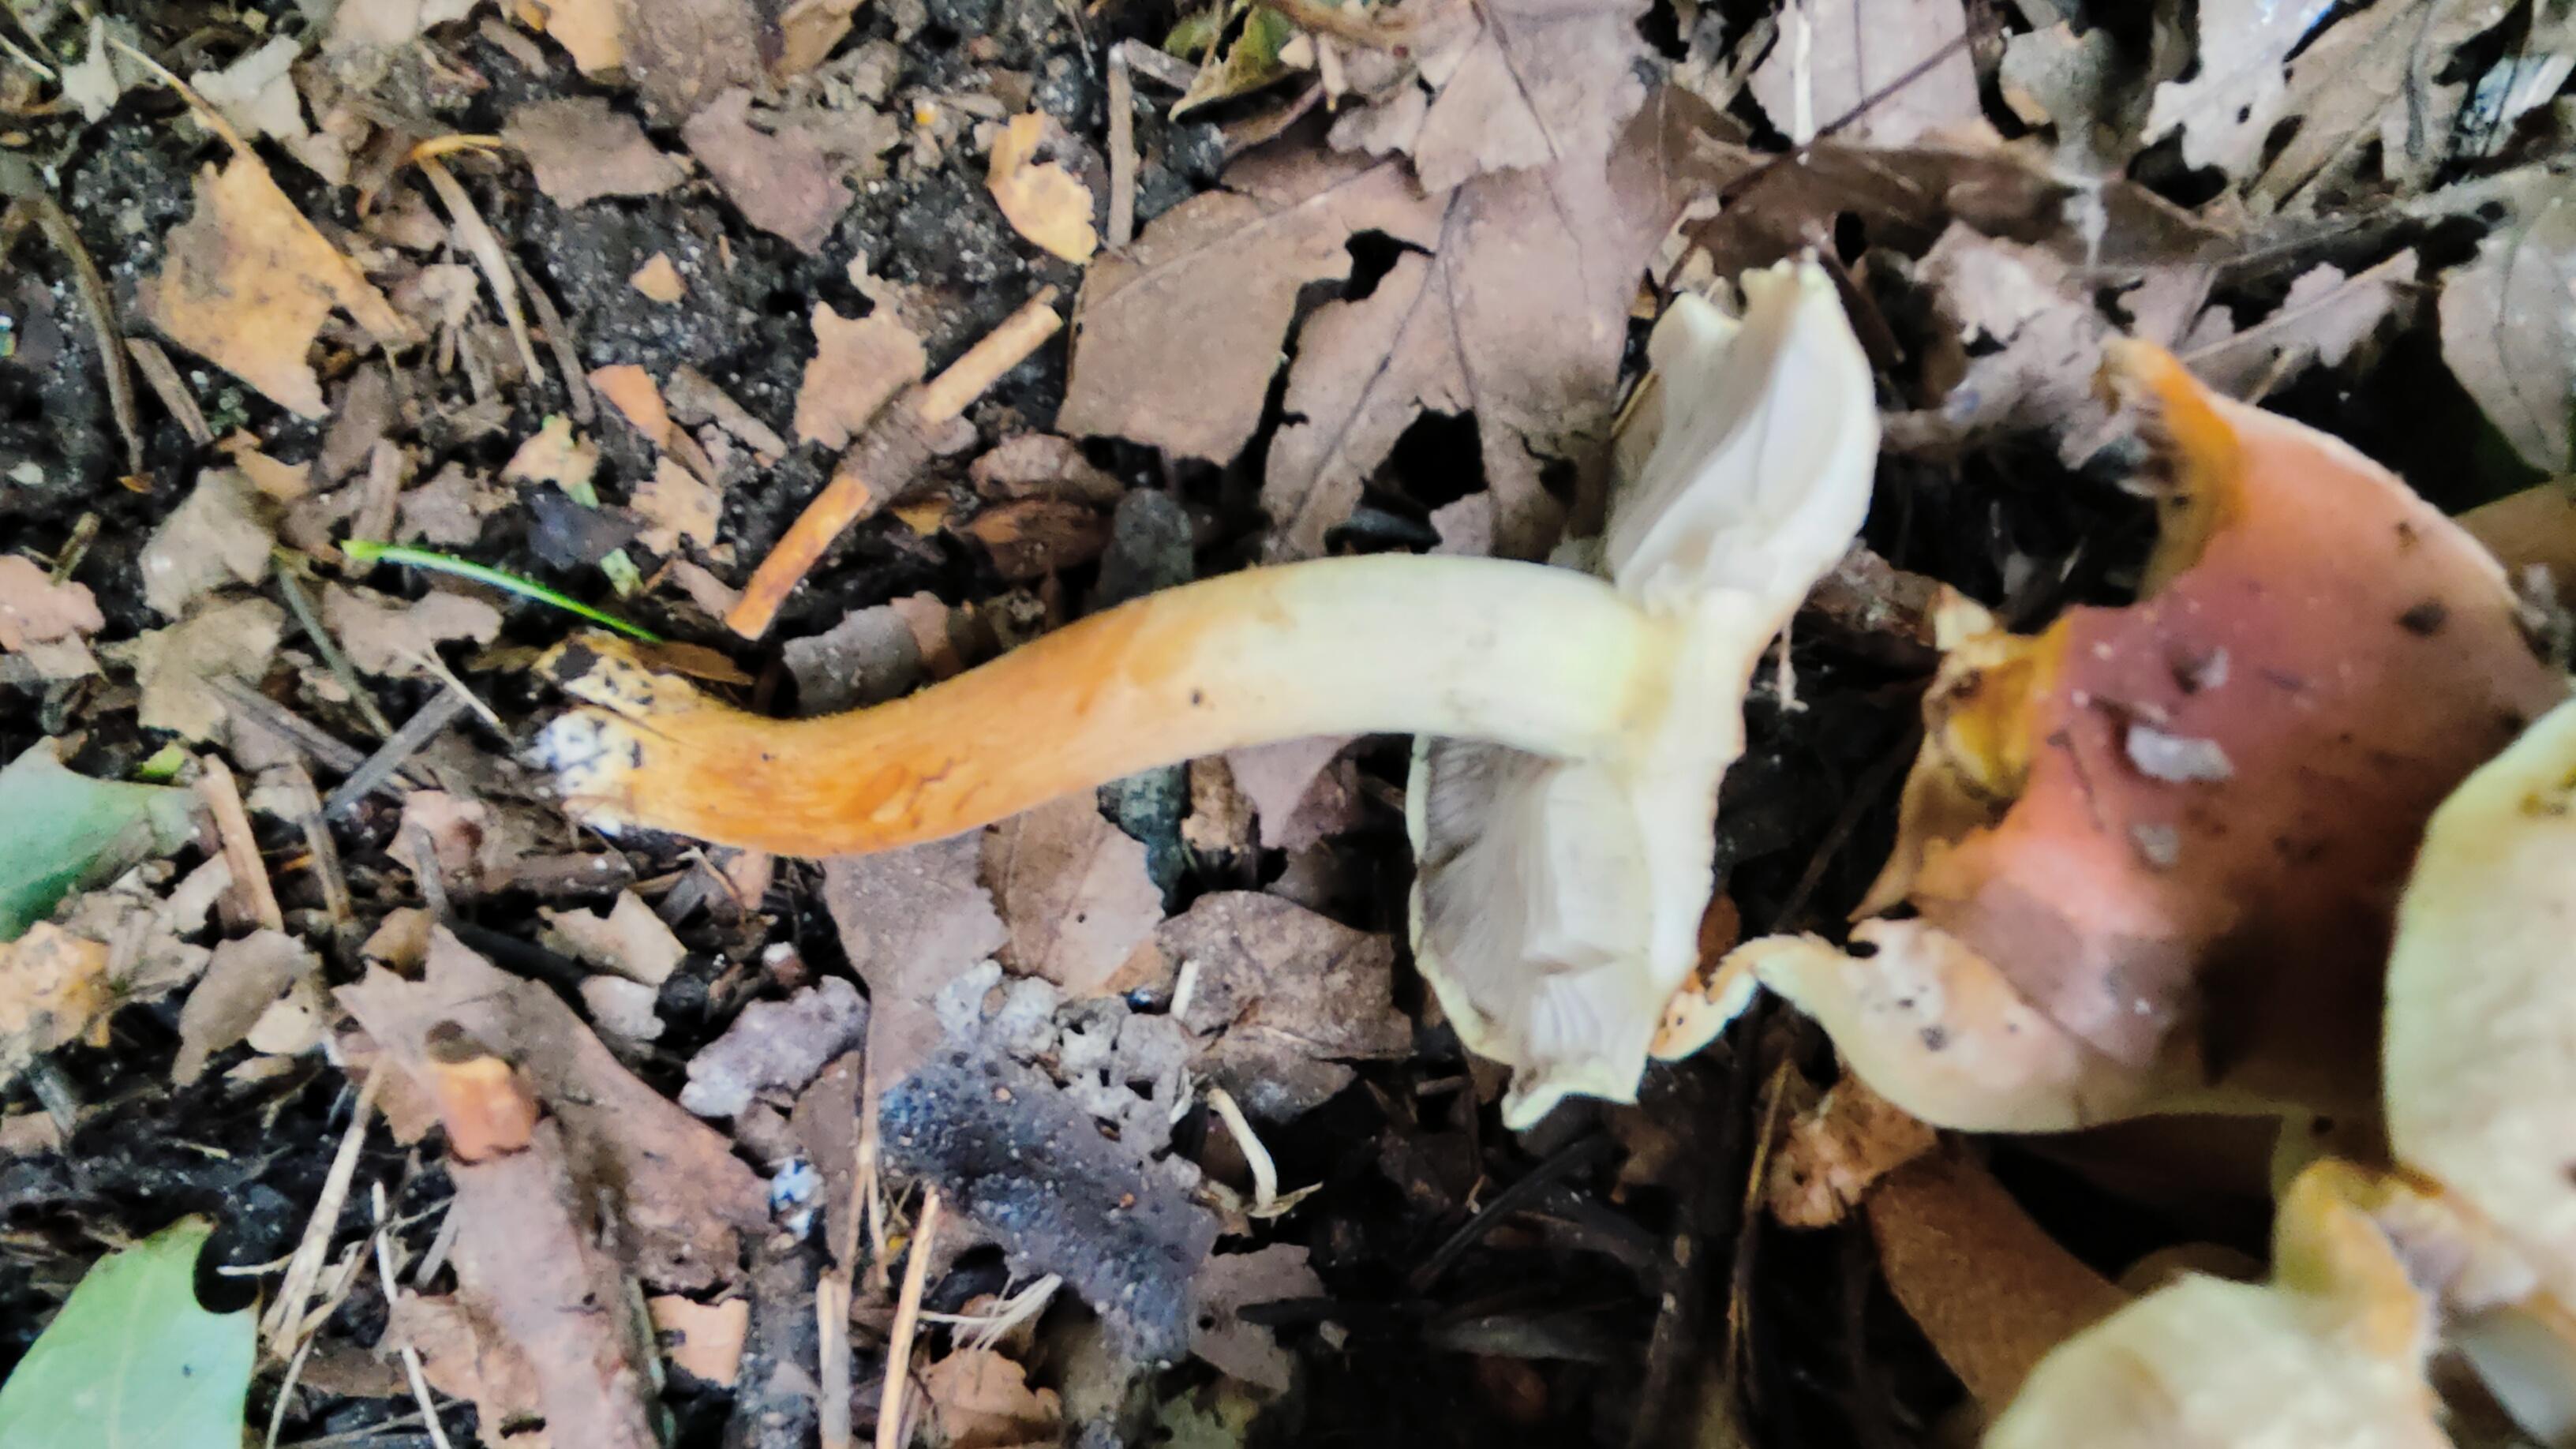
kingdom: Fungi
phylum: Basidiomycota
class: Agaricomycetes
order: Agaricales
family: Strophariaceae
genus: Hypholoma
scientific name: Hypholoma lateritium
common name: teglrød svovlhat
